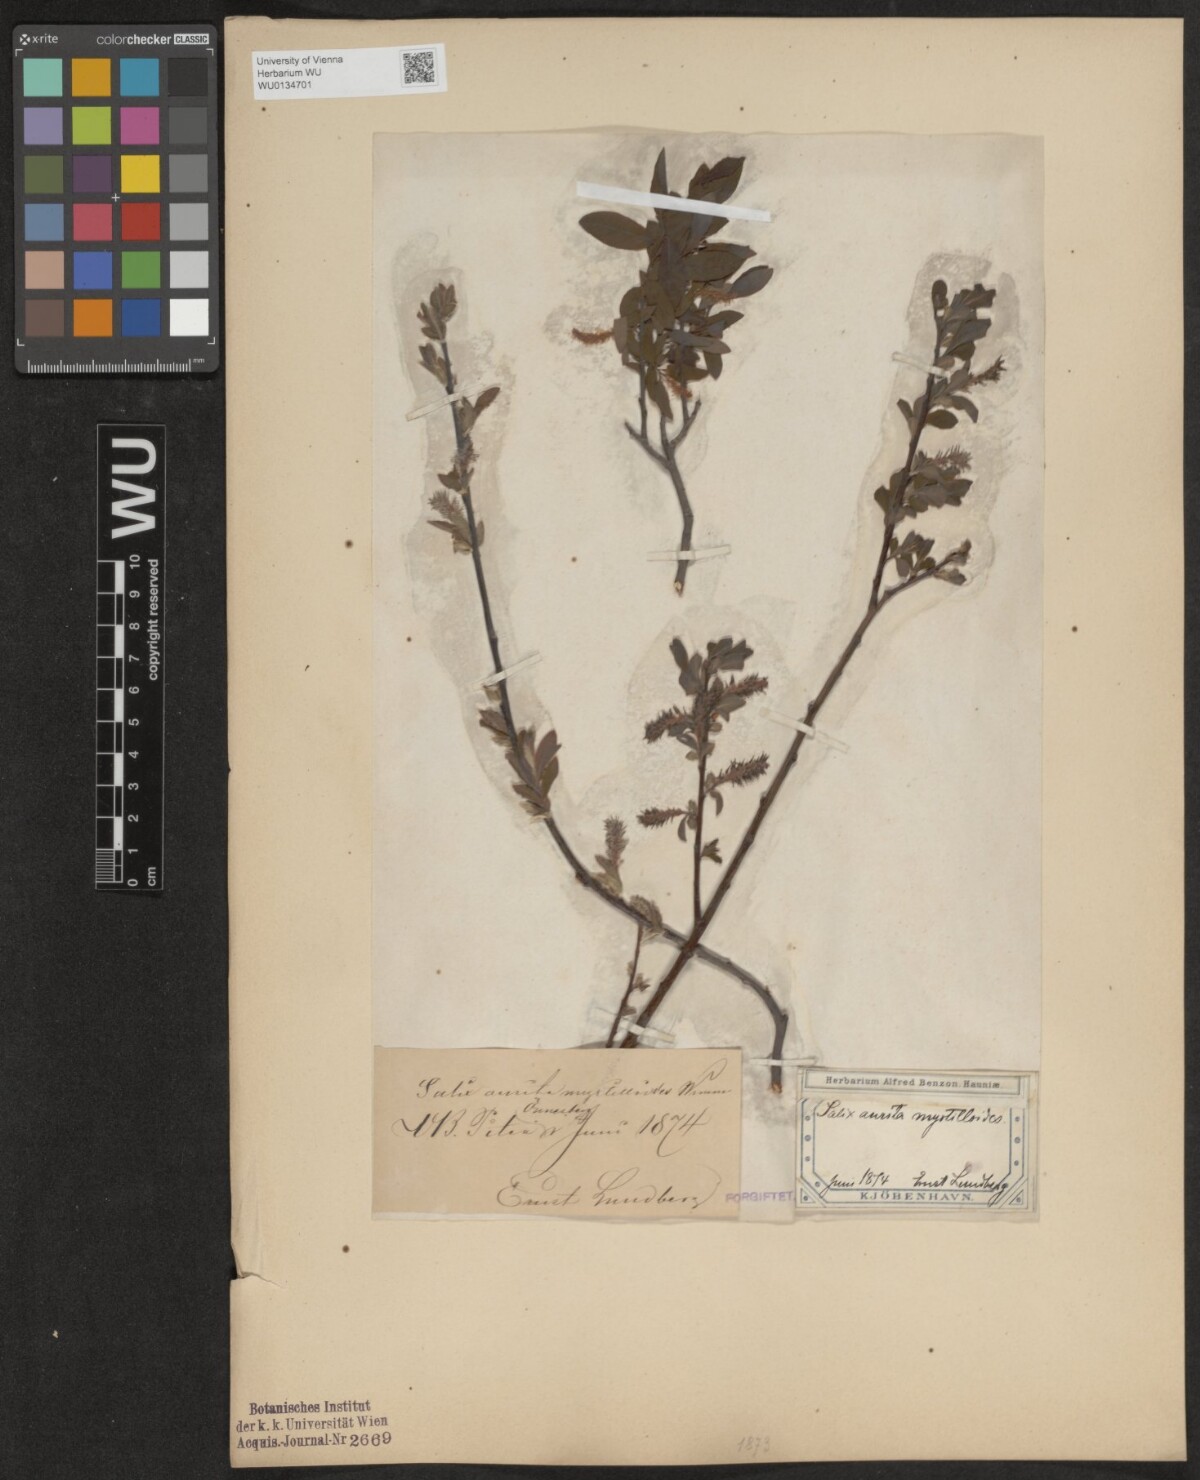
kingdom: Plantae
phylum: Tracheophyta
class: Magnoliopsida
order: Malpighiales
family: Salicaceae
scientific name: Salicaceae
